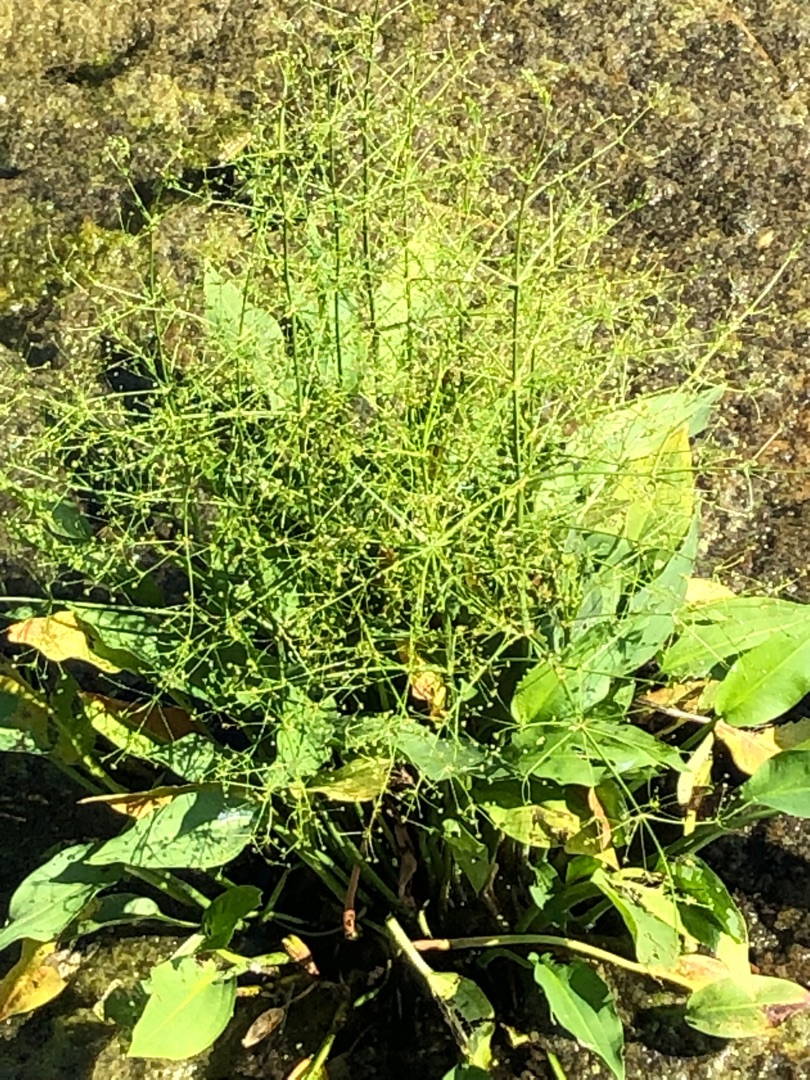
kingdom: Plantae
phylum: Tracheophyta
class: Liliopsida
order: Alismatales
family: Alismataceae
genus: Alisma
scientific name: Alisma plantago-aquatica
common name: Vejbred-skeblad
